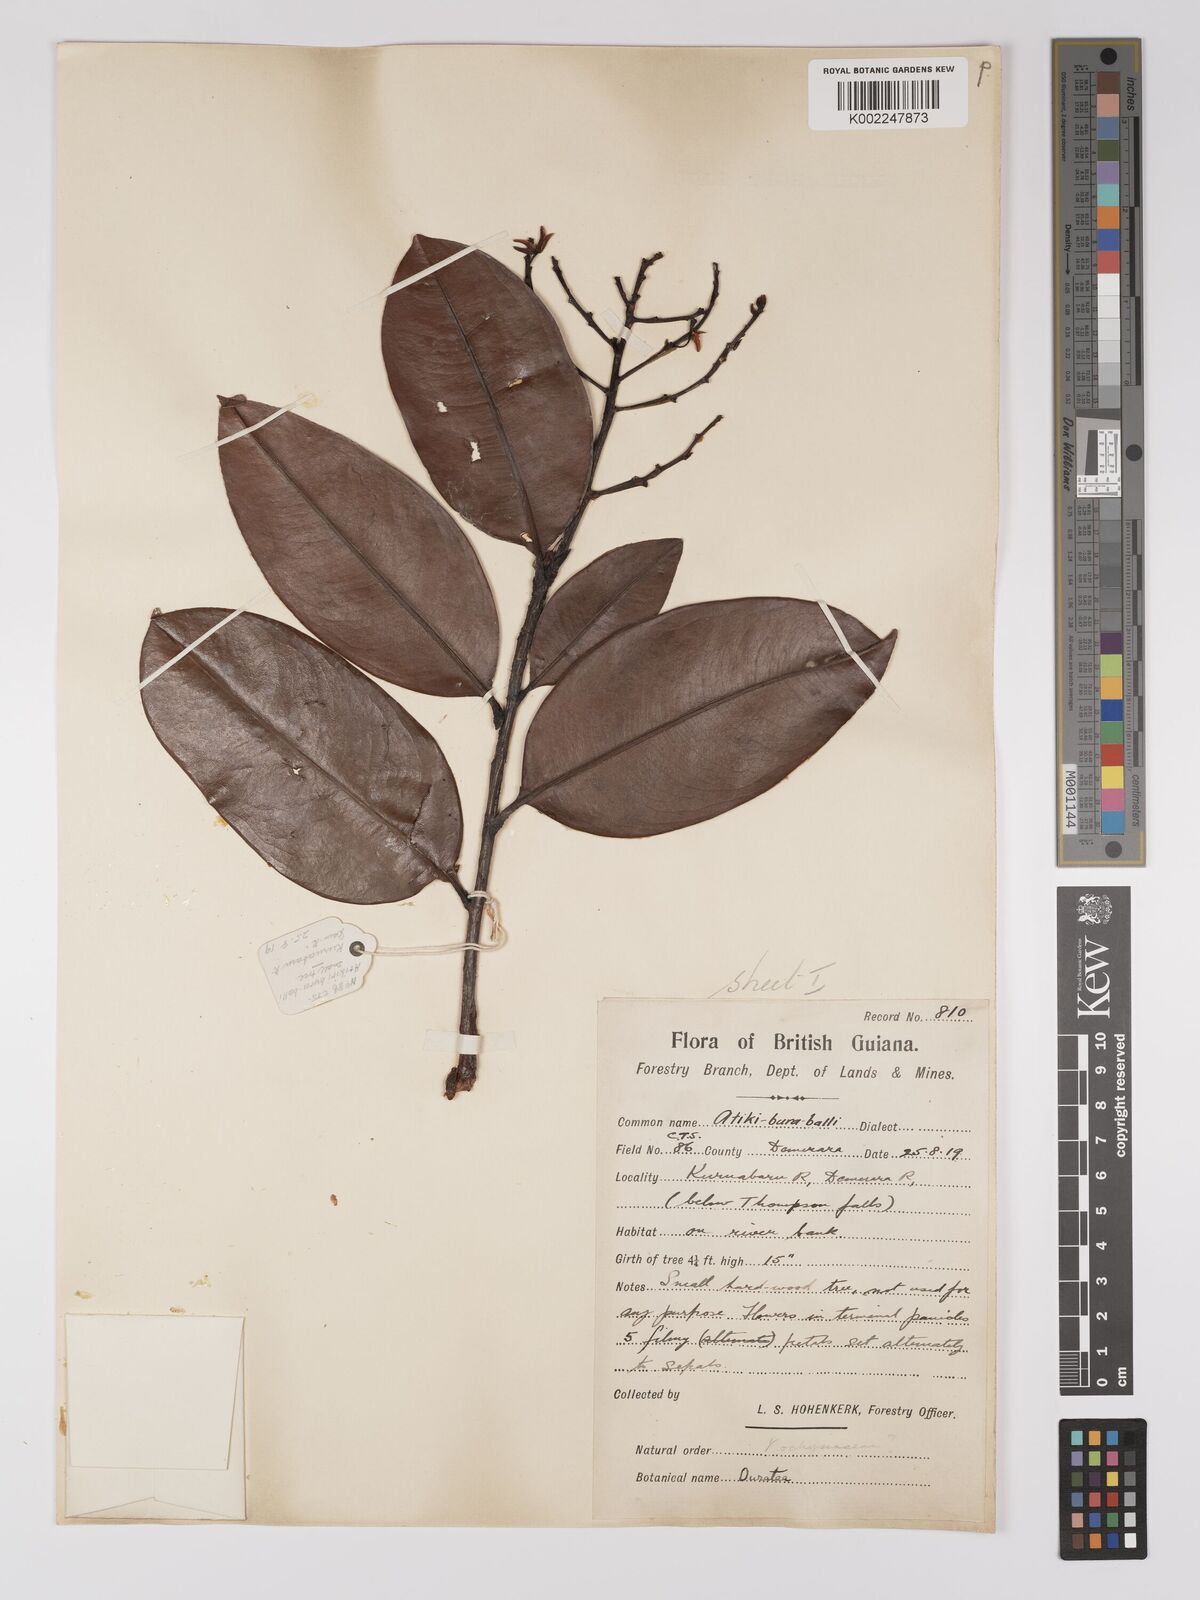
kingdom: Plantae
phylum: Tracheophyta
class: Magnoliopsida
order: Malpighiales
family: Ochnaceae
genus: Ouratea
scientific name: Ouratea
